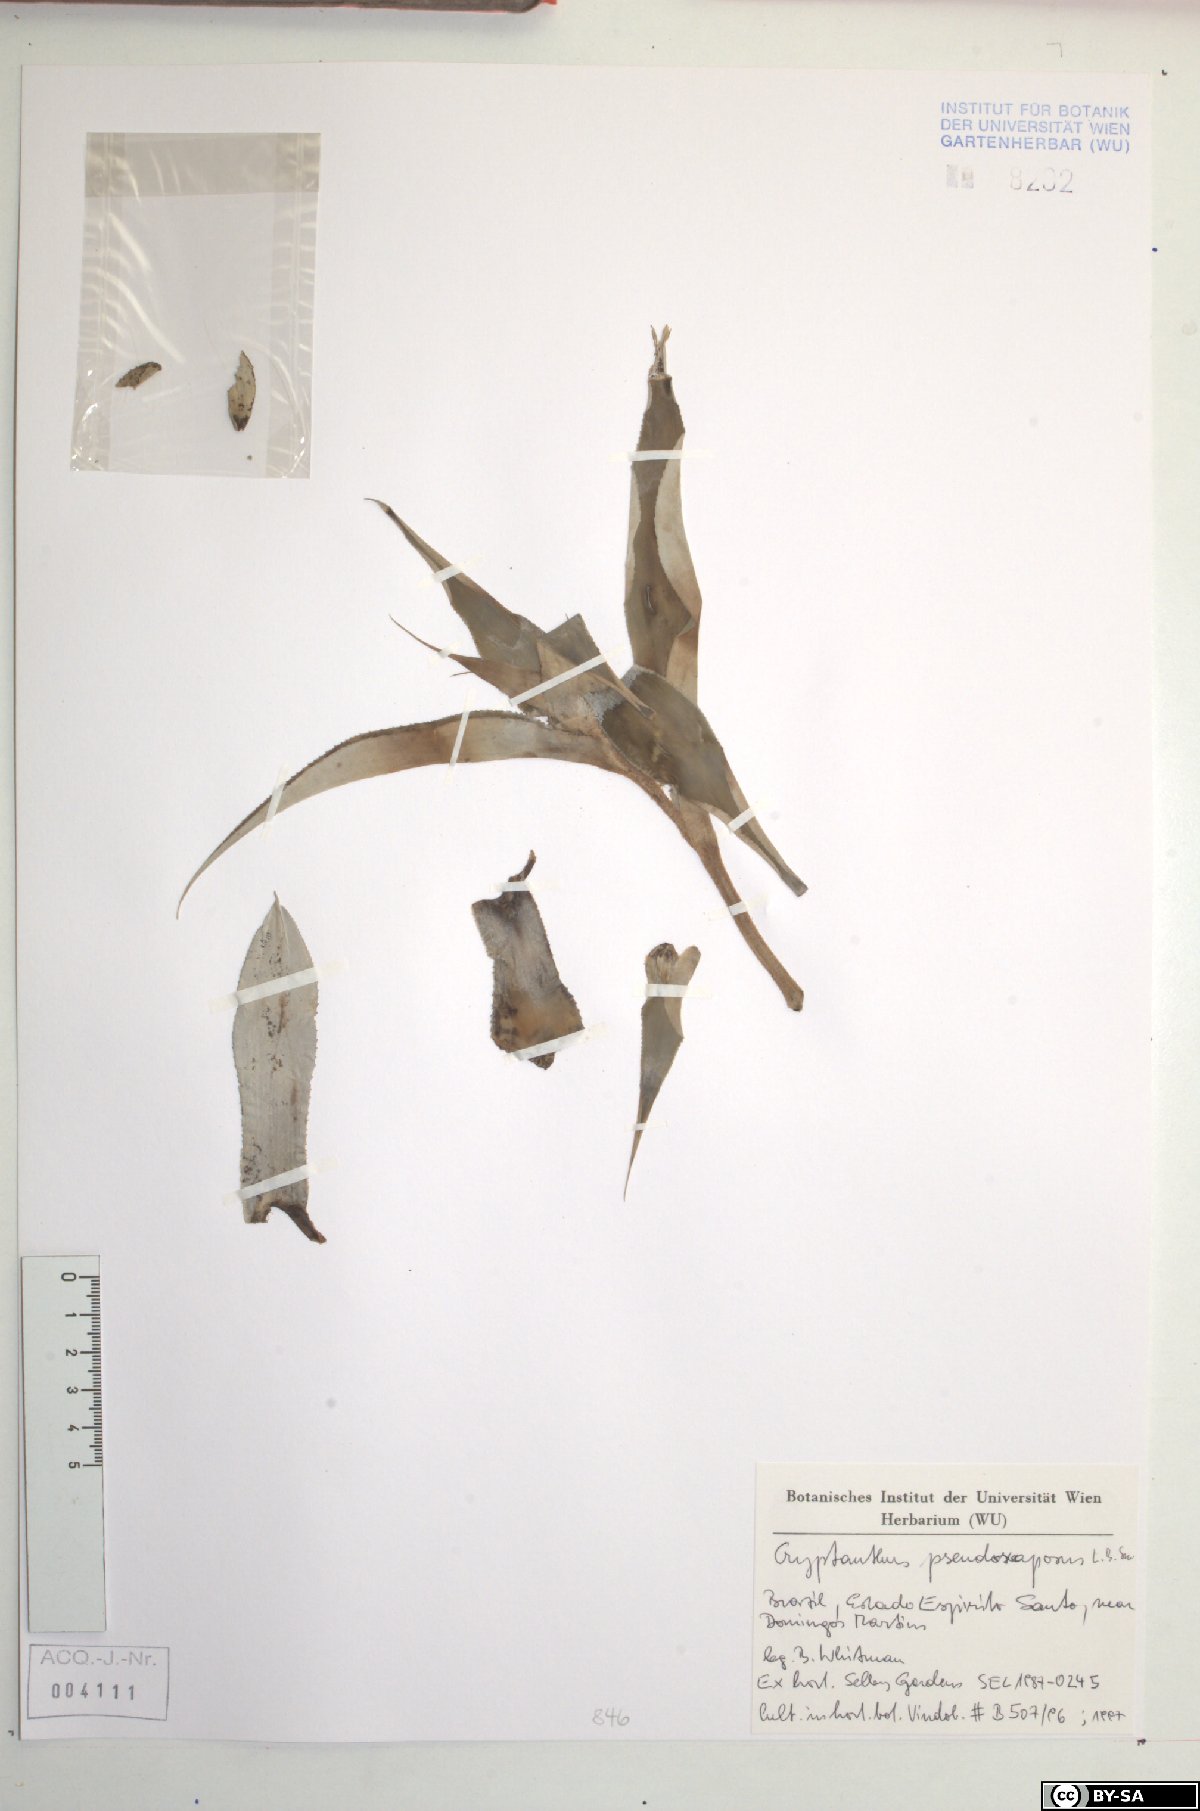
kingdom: Plantae
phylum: Tracheophyta
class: Liliopsida
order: Poales
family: Bromeliaceae
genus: Rokautskyia
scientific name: Rokautskyia pseudoscaposa
